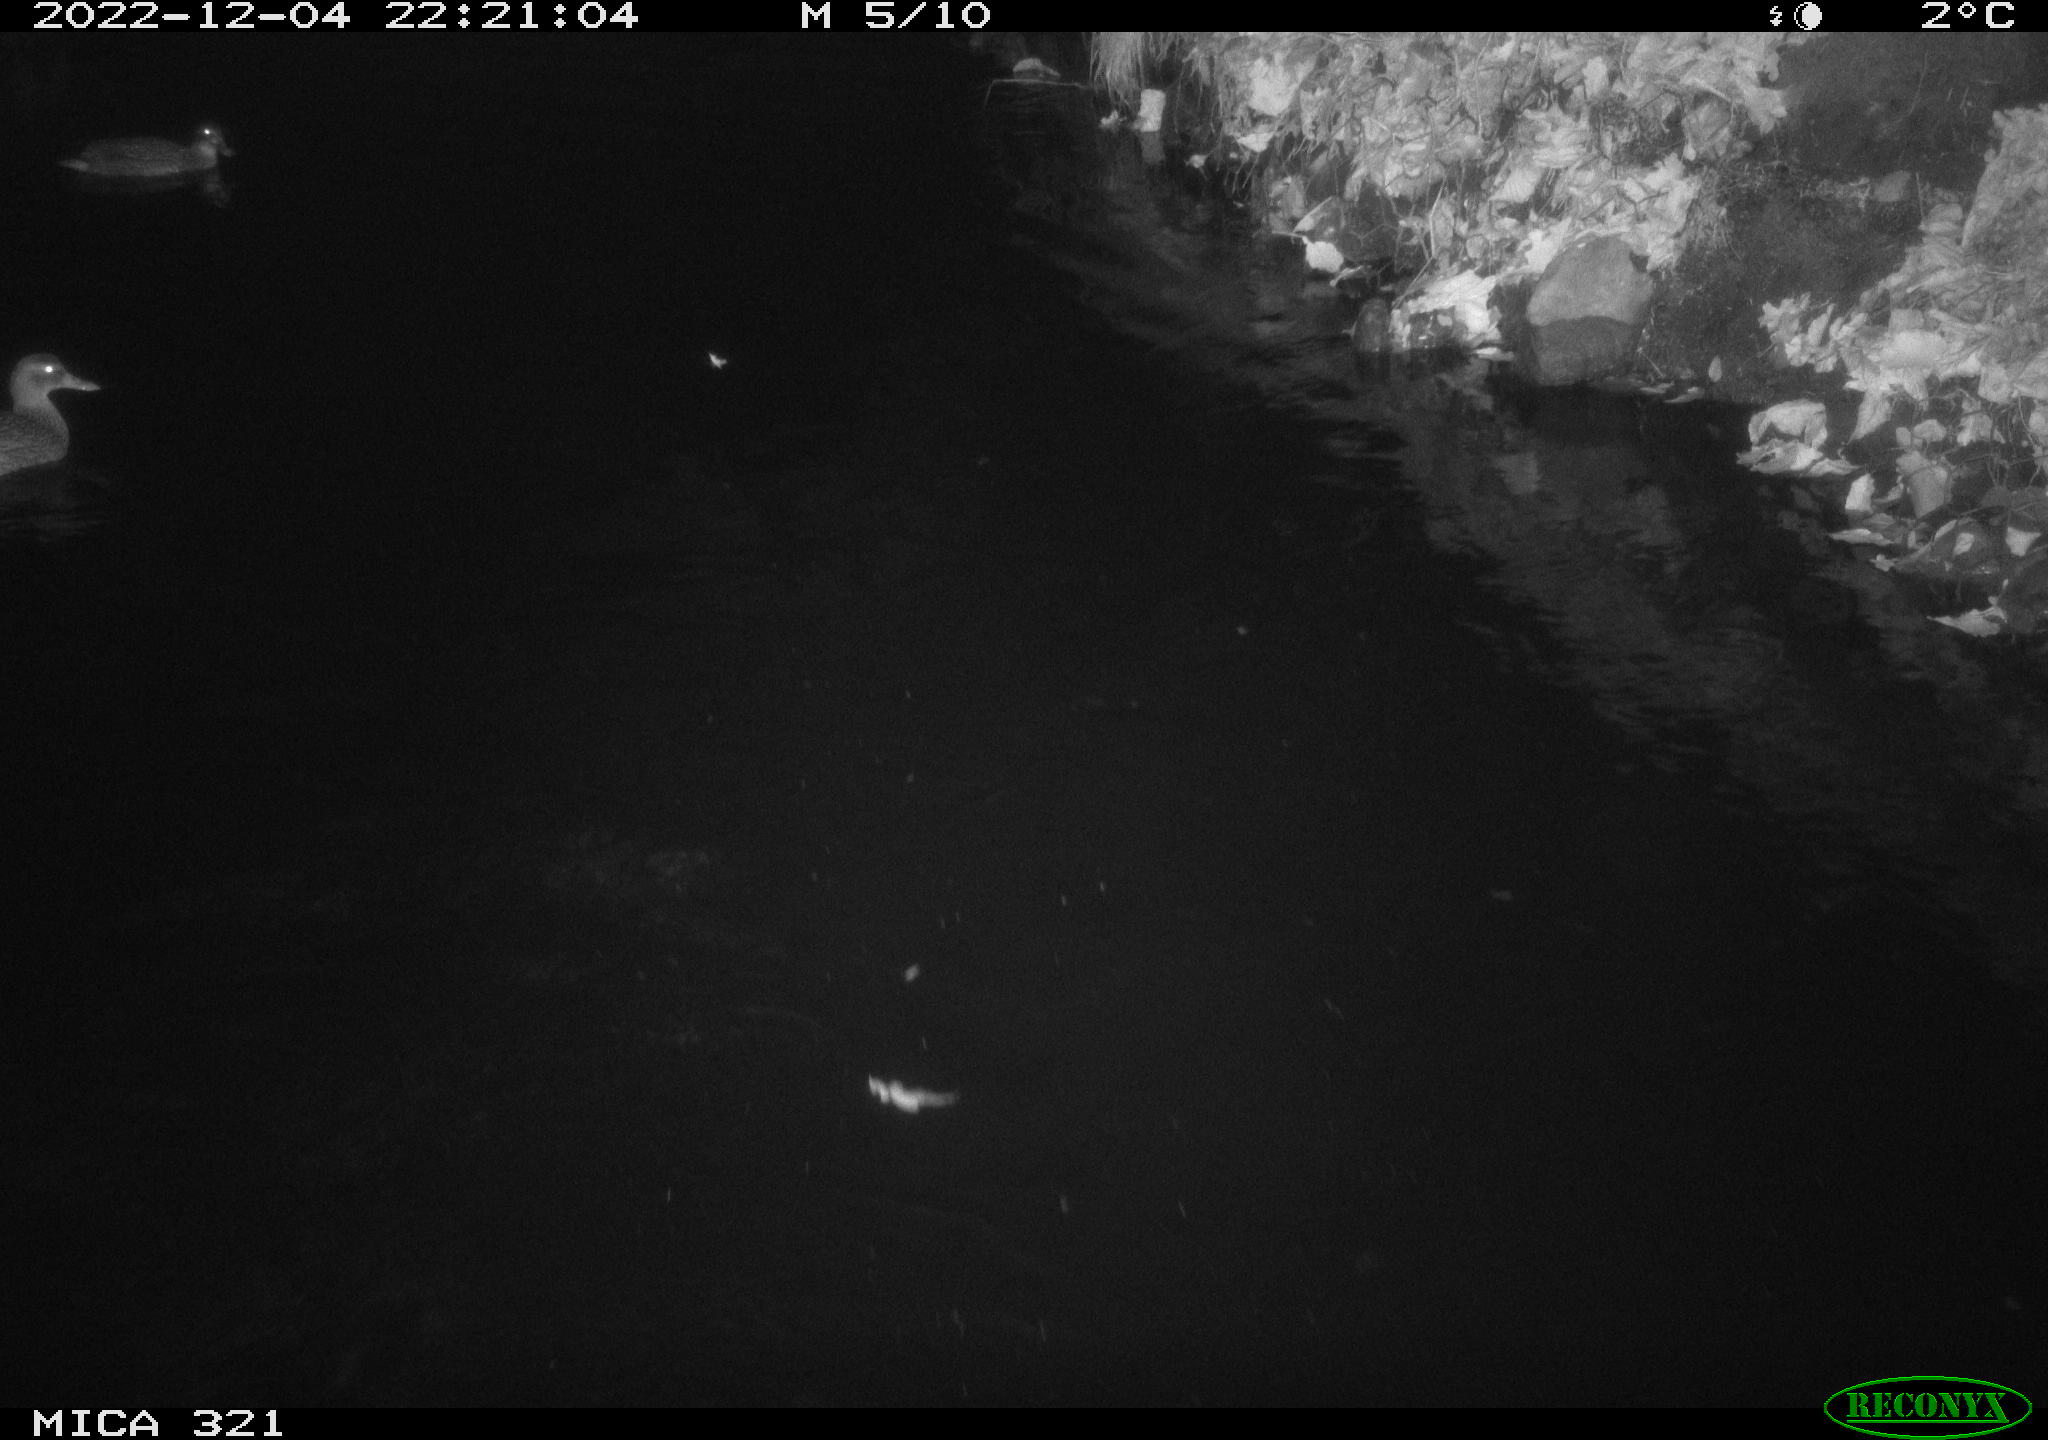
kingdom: Animalia
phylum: Chordata
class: Aves
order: Anseriformes
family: Anatidae
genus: Anas
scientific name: Anas
